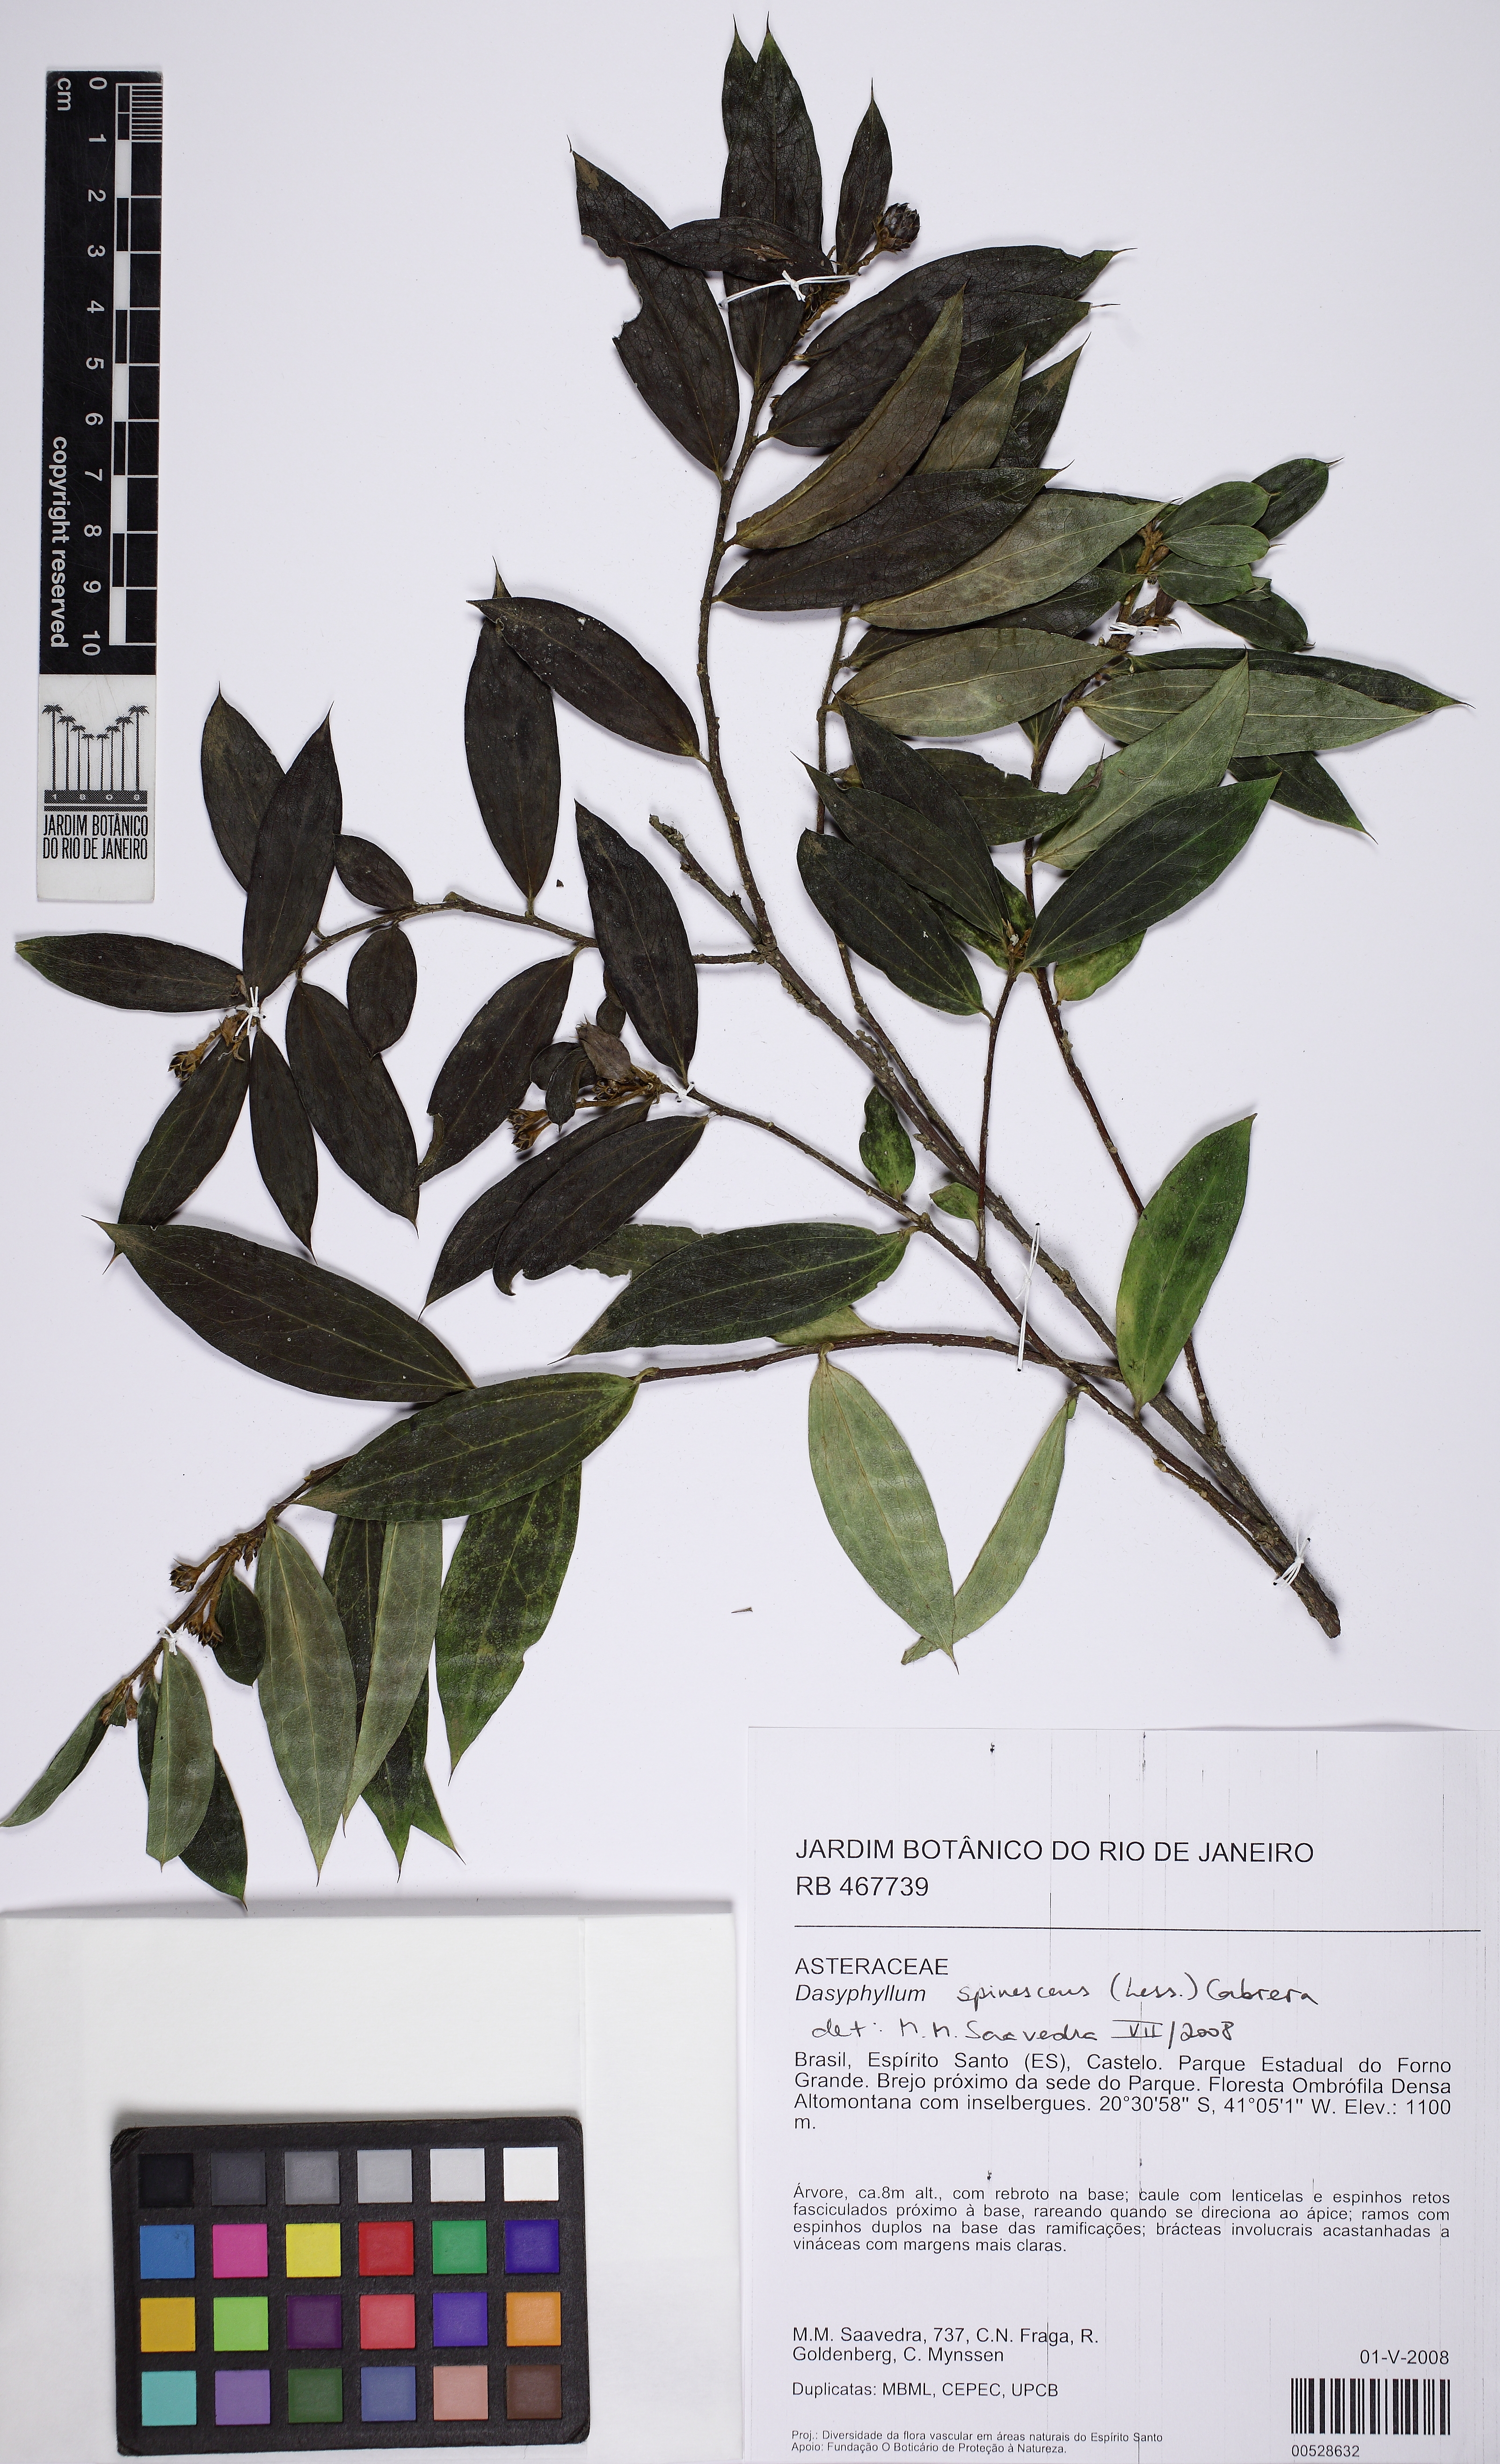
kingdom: Plantae
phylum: Tracheophyta
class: Magnoliopsida
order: Asterales
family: Asteraceae
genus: Dasyphyllum
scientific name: Dasyphyllum spinescens
